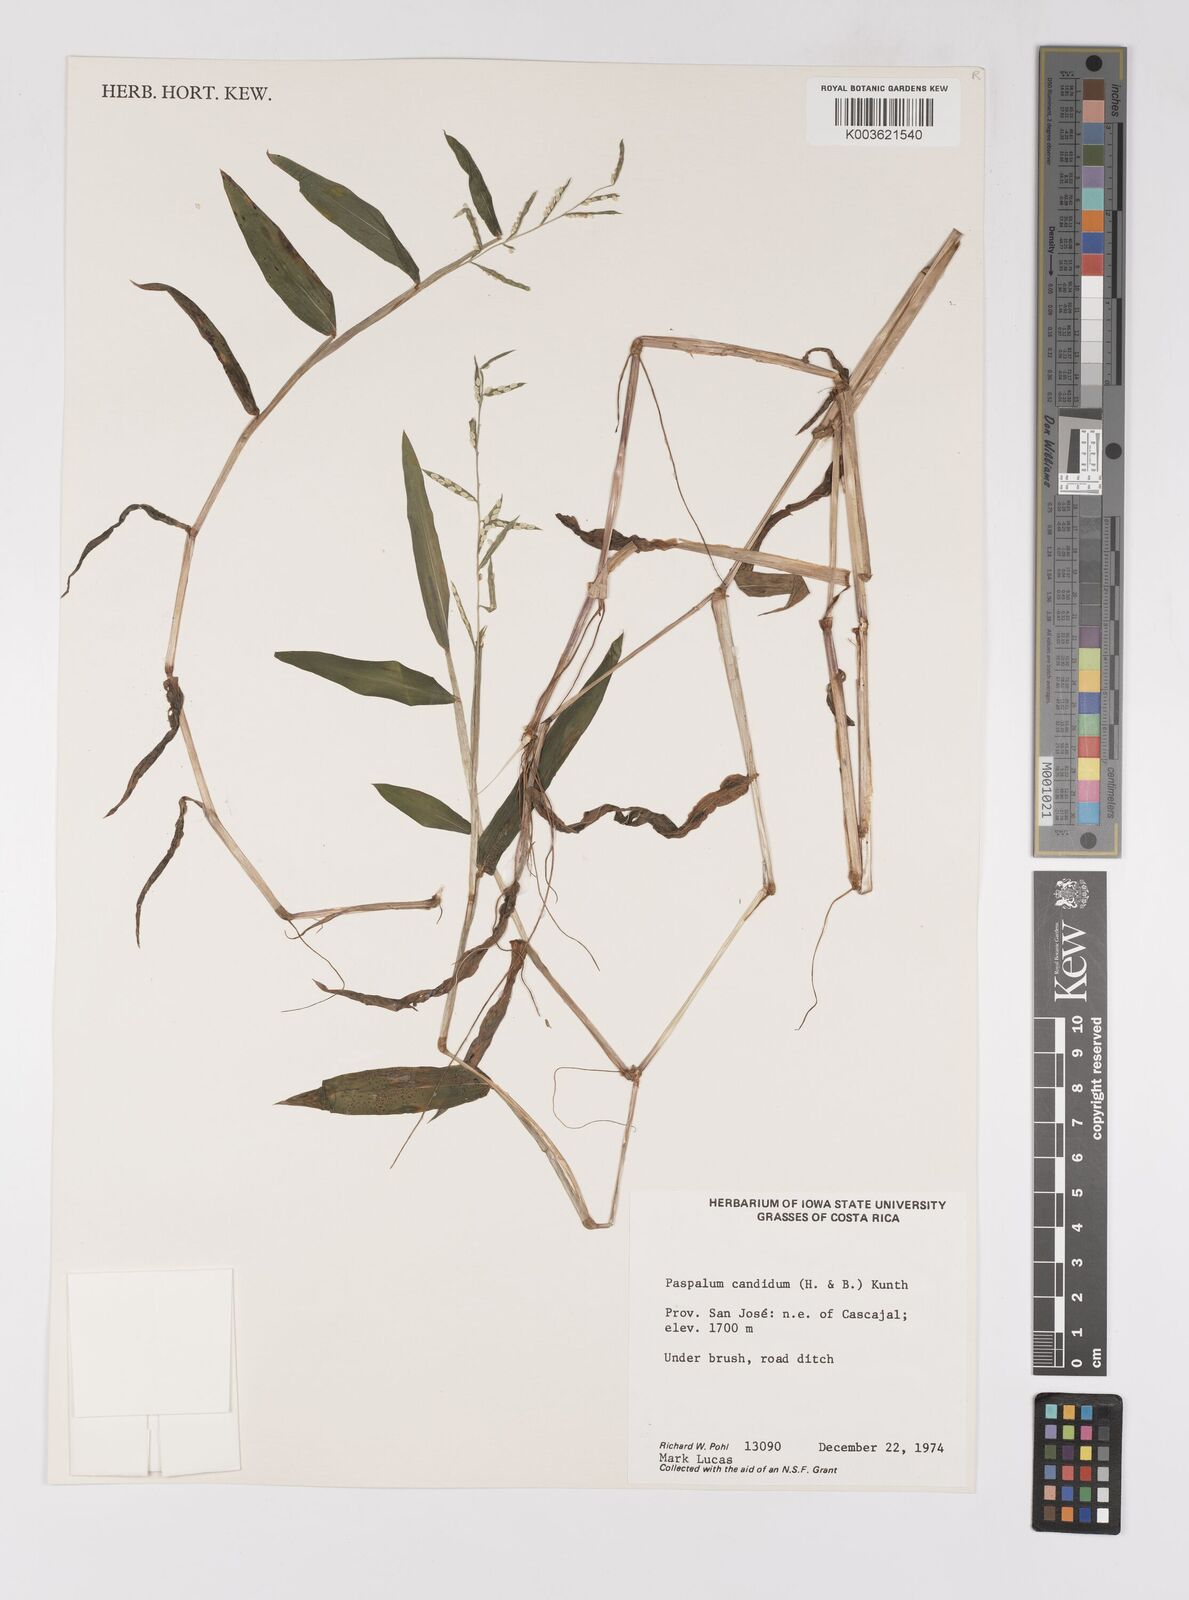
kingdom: Plantae
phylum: Tracheophyta
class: Liliopsida
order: Poales
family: Poaceae
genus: Paspalum
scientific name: Paspalum candidum
